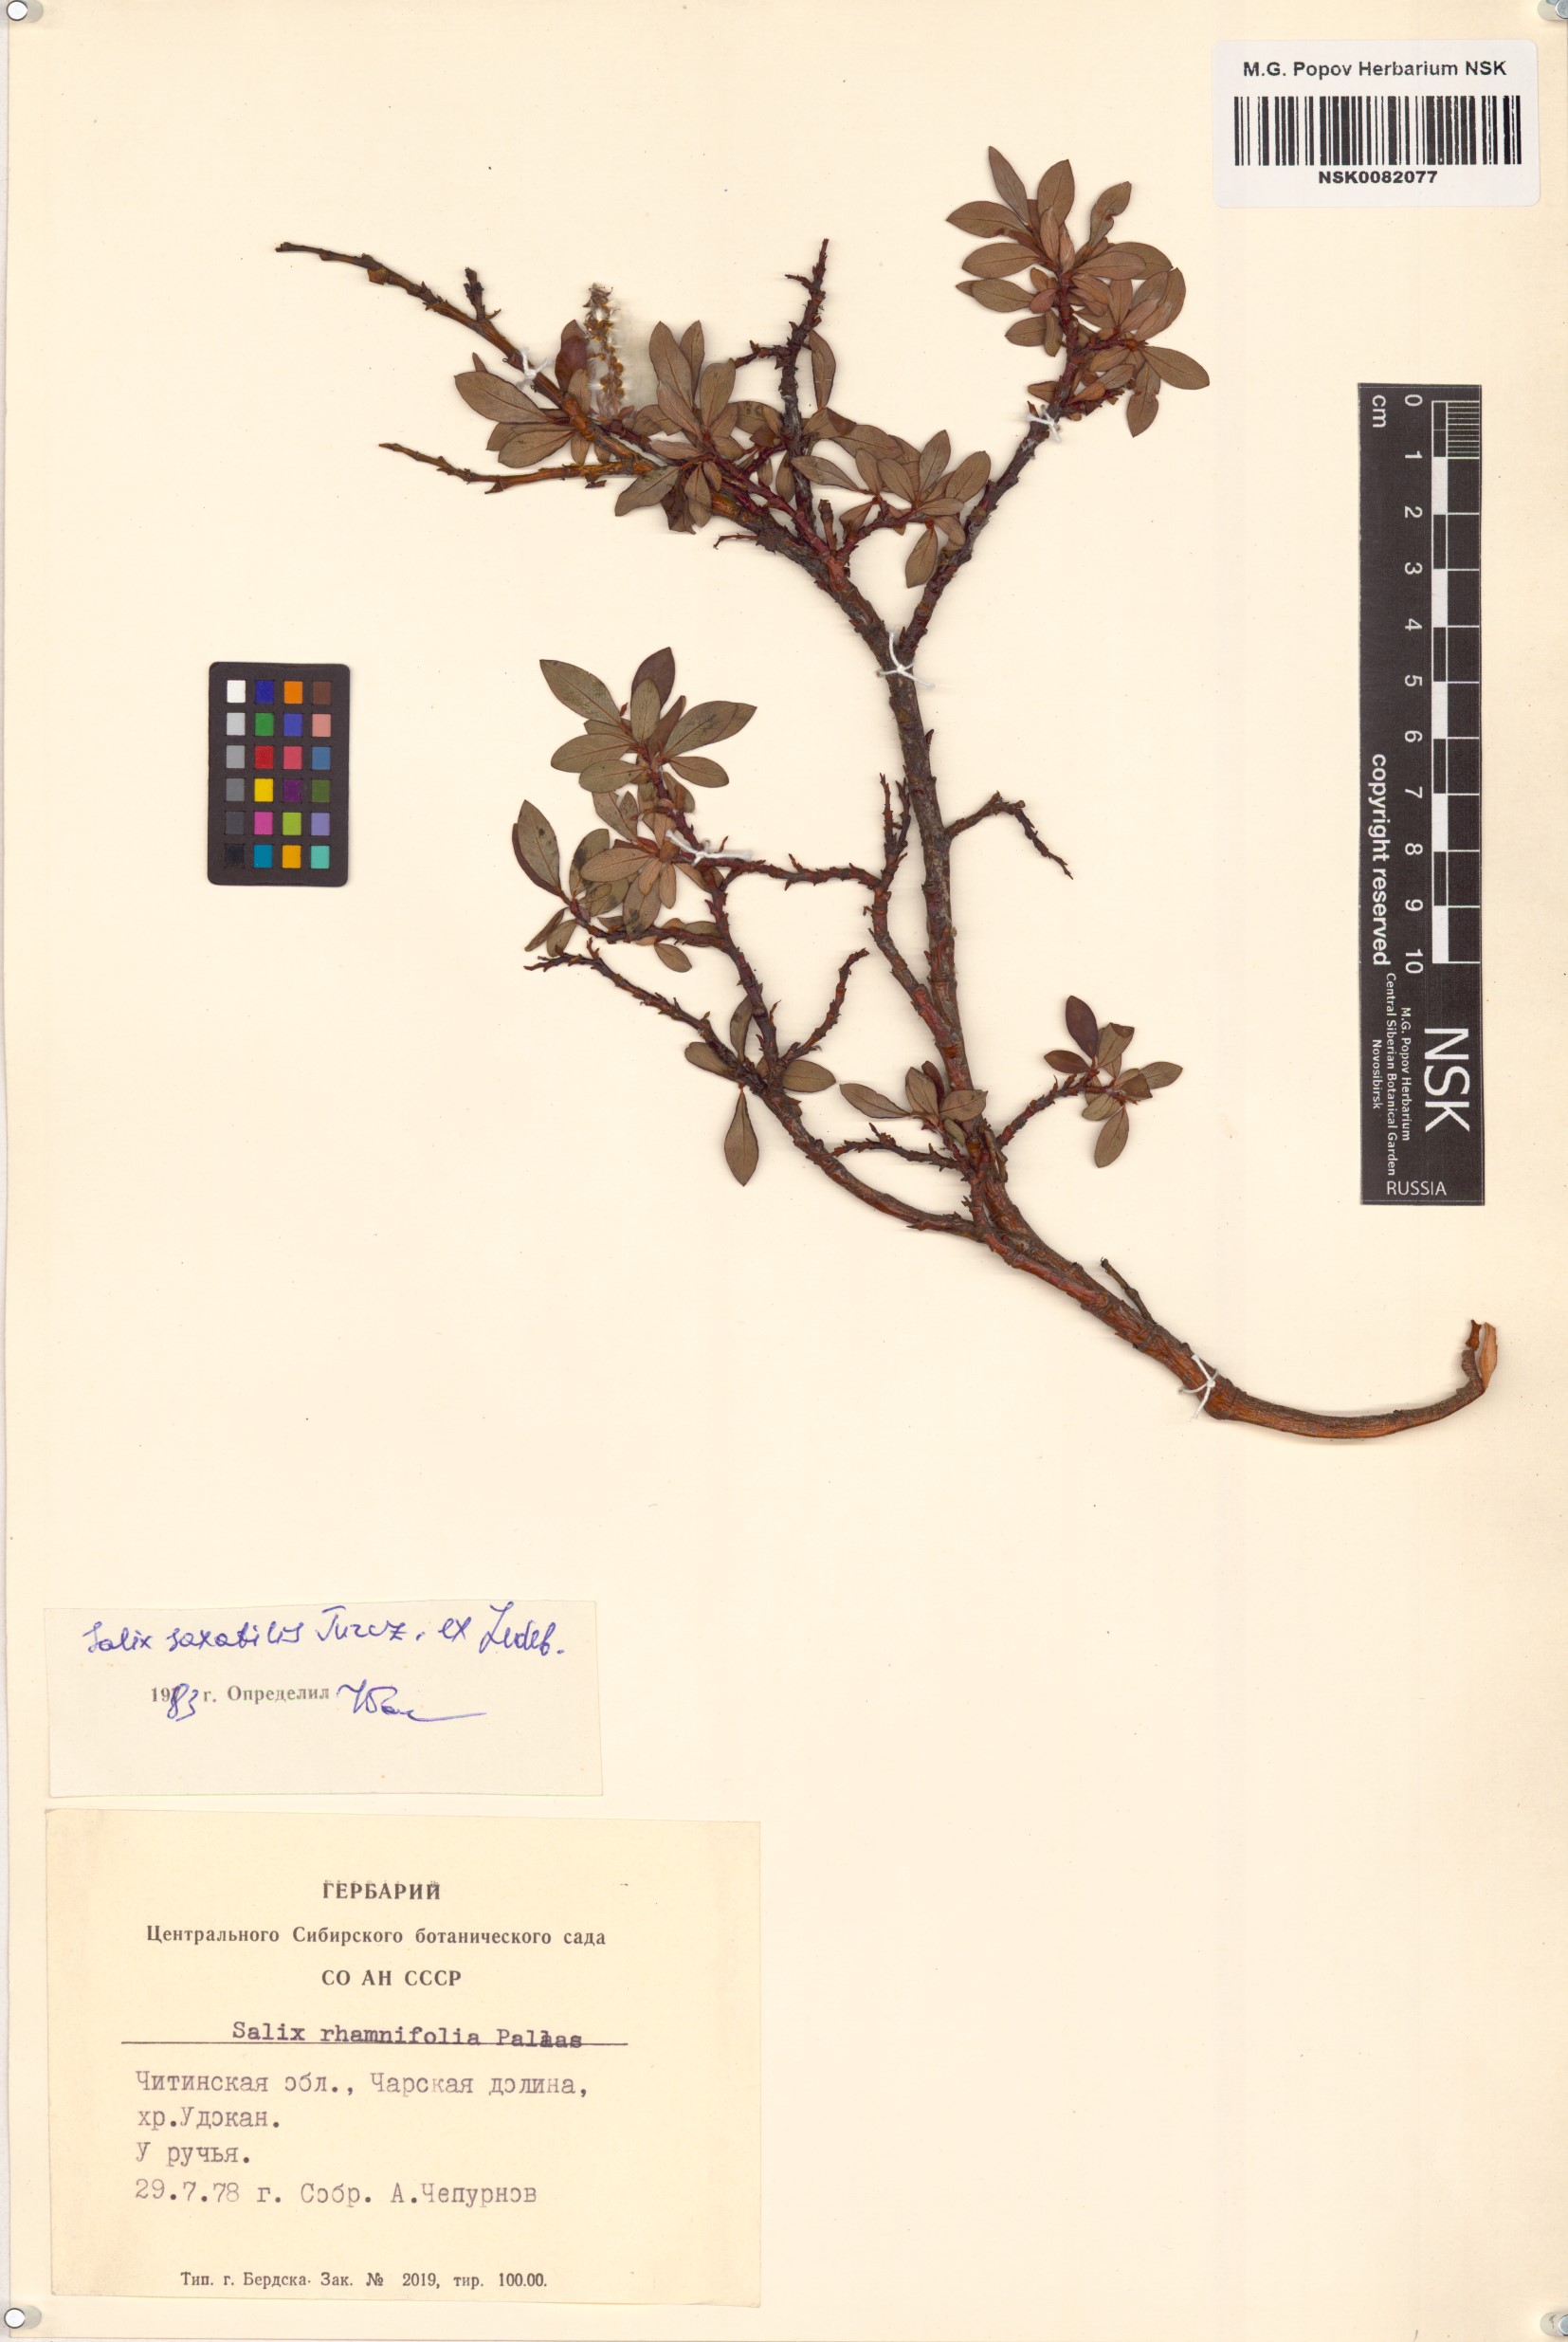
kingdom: Plantae
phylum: Tracheophyta
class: Magnoliopsida
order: Malpighiales
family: Salicaceae
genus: Salix
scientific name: Salix saxatilis
